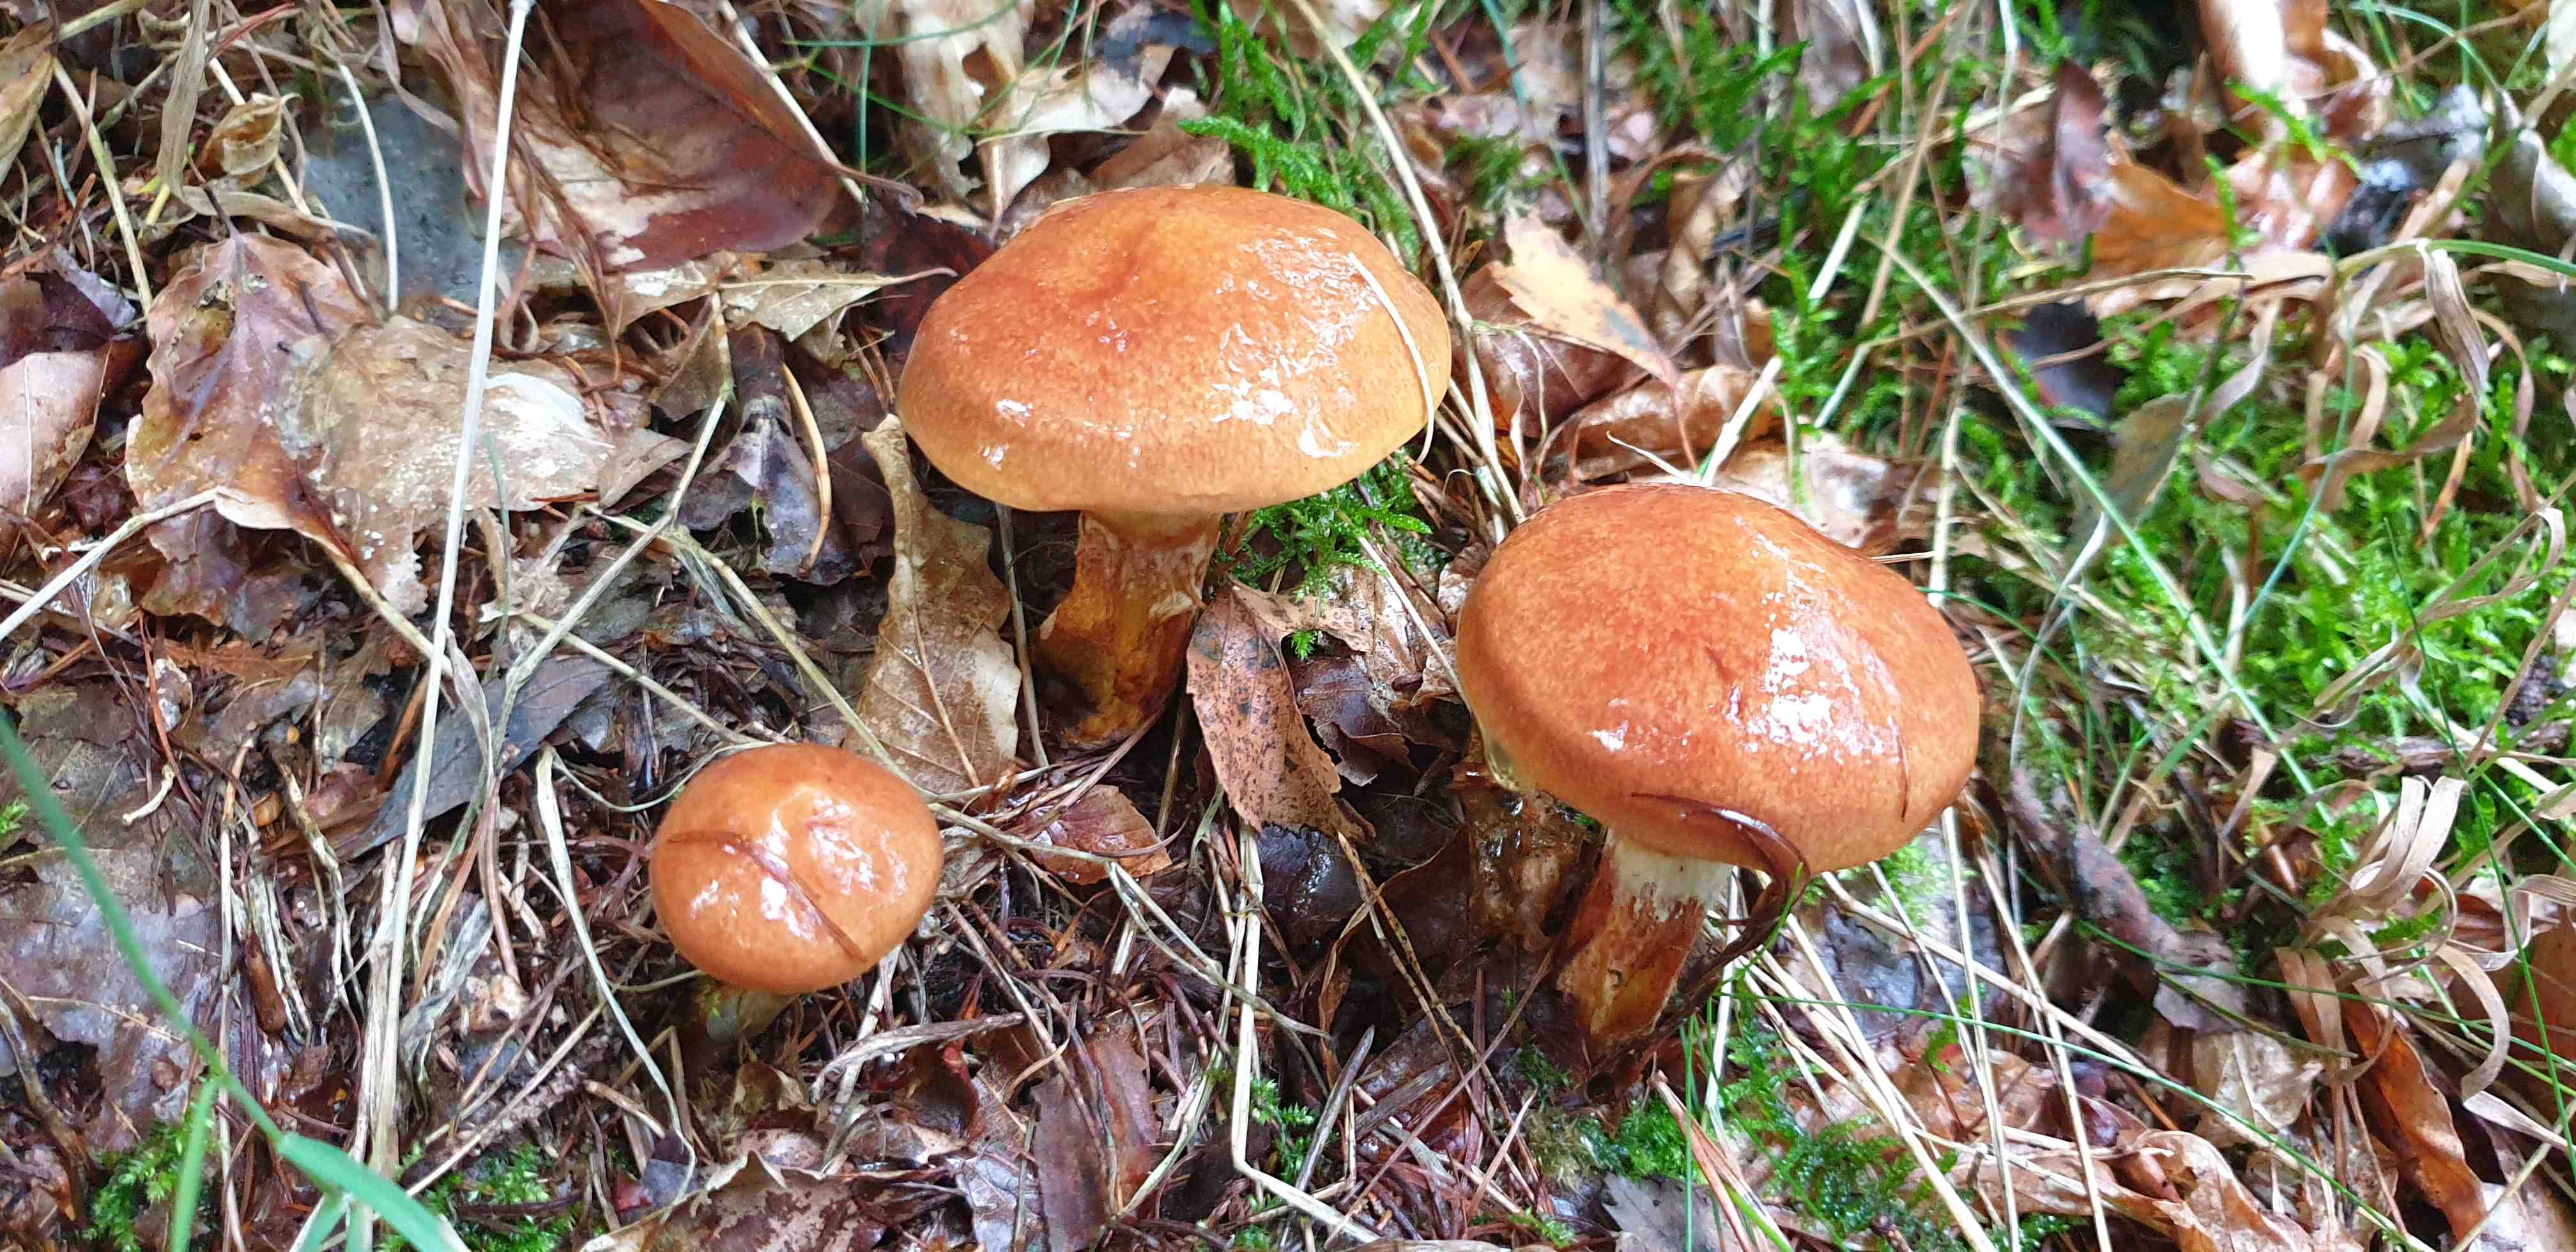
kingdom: Fungi
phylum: Basidiomycota
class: Agaricomycetes
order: Boletales
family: Suillaceae
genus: Suillus
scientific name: Suillus grevillei
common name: lærke-slimrørhat
